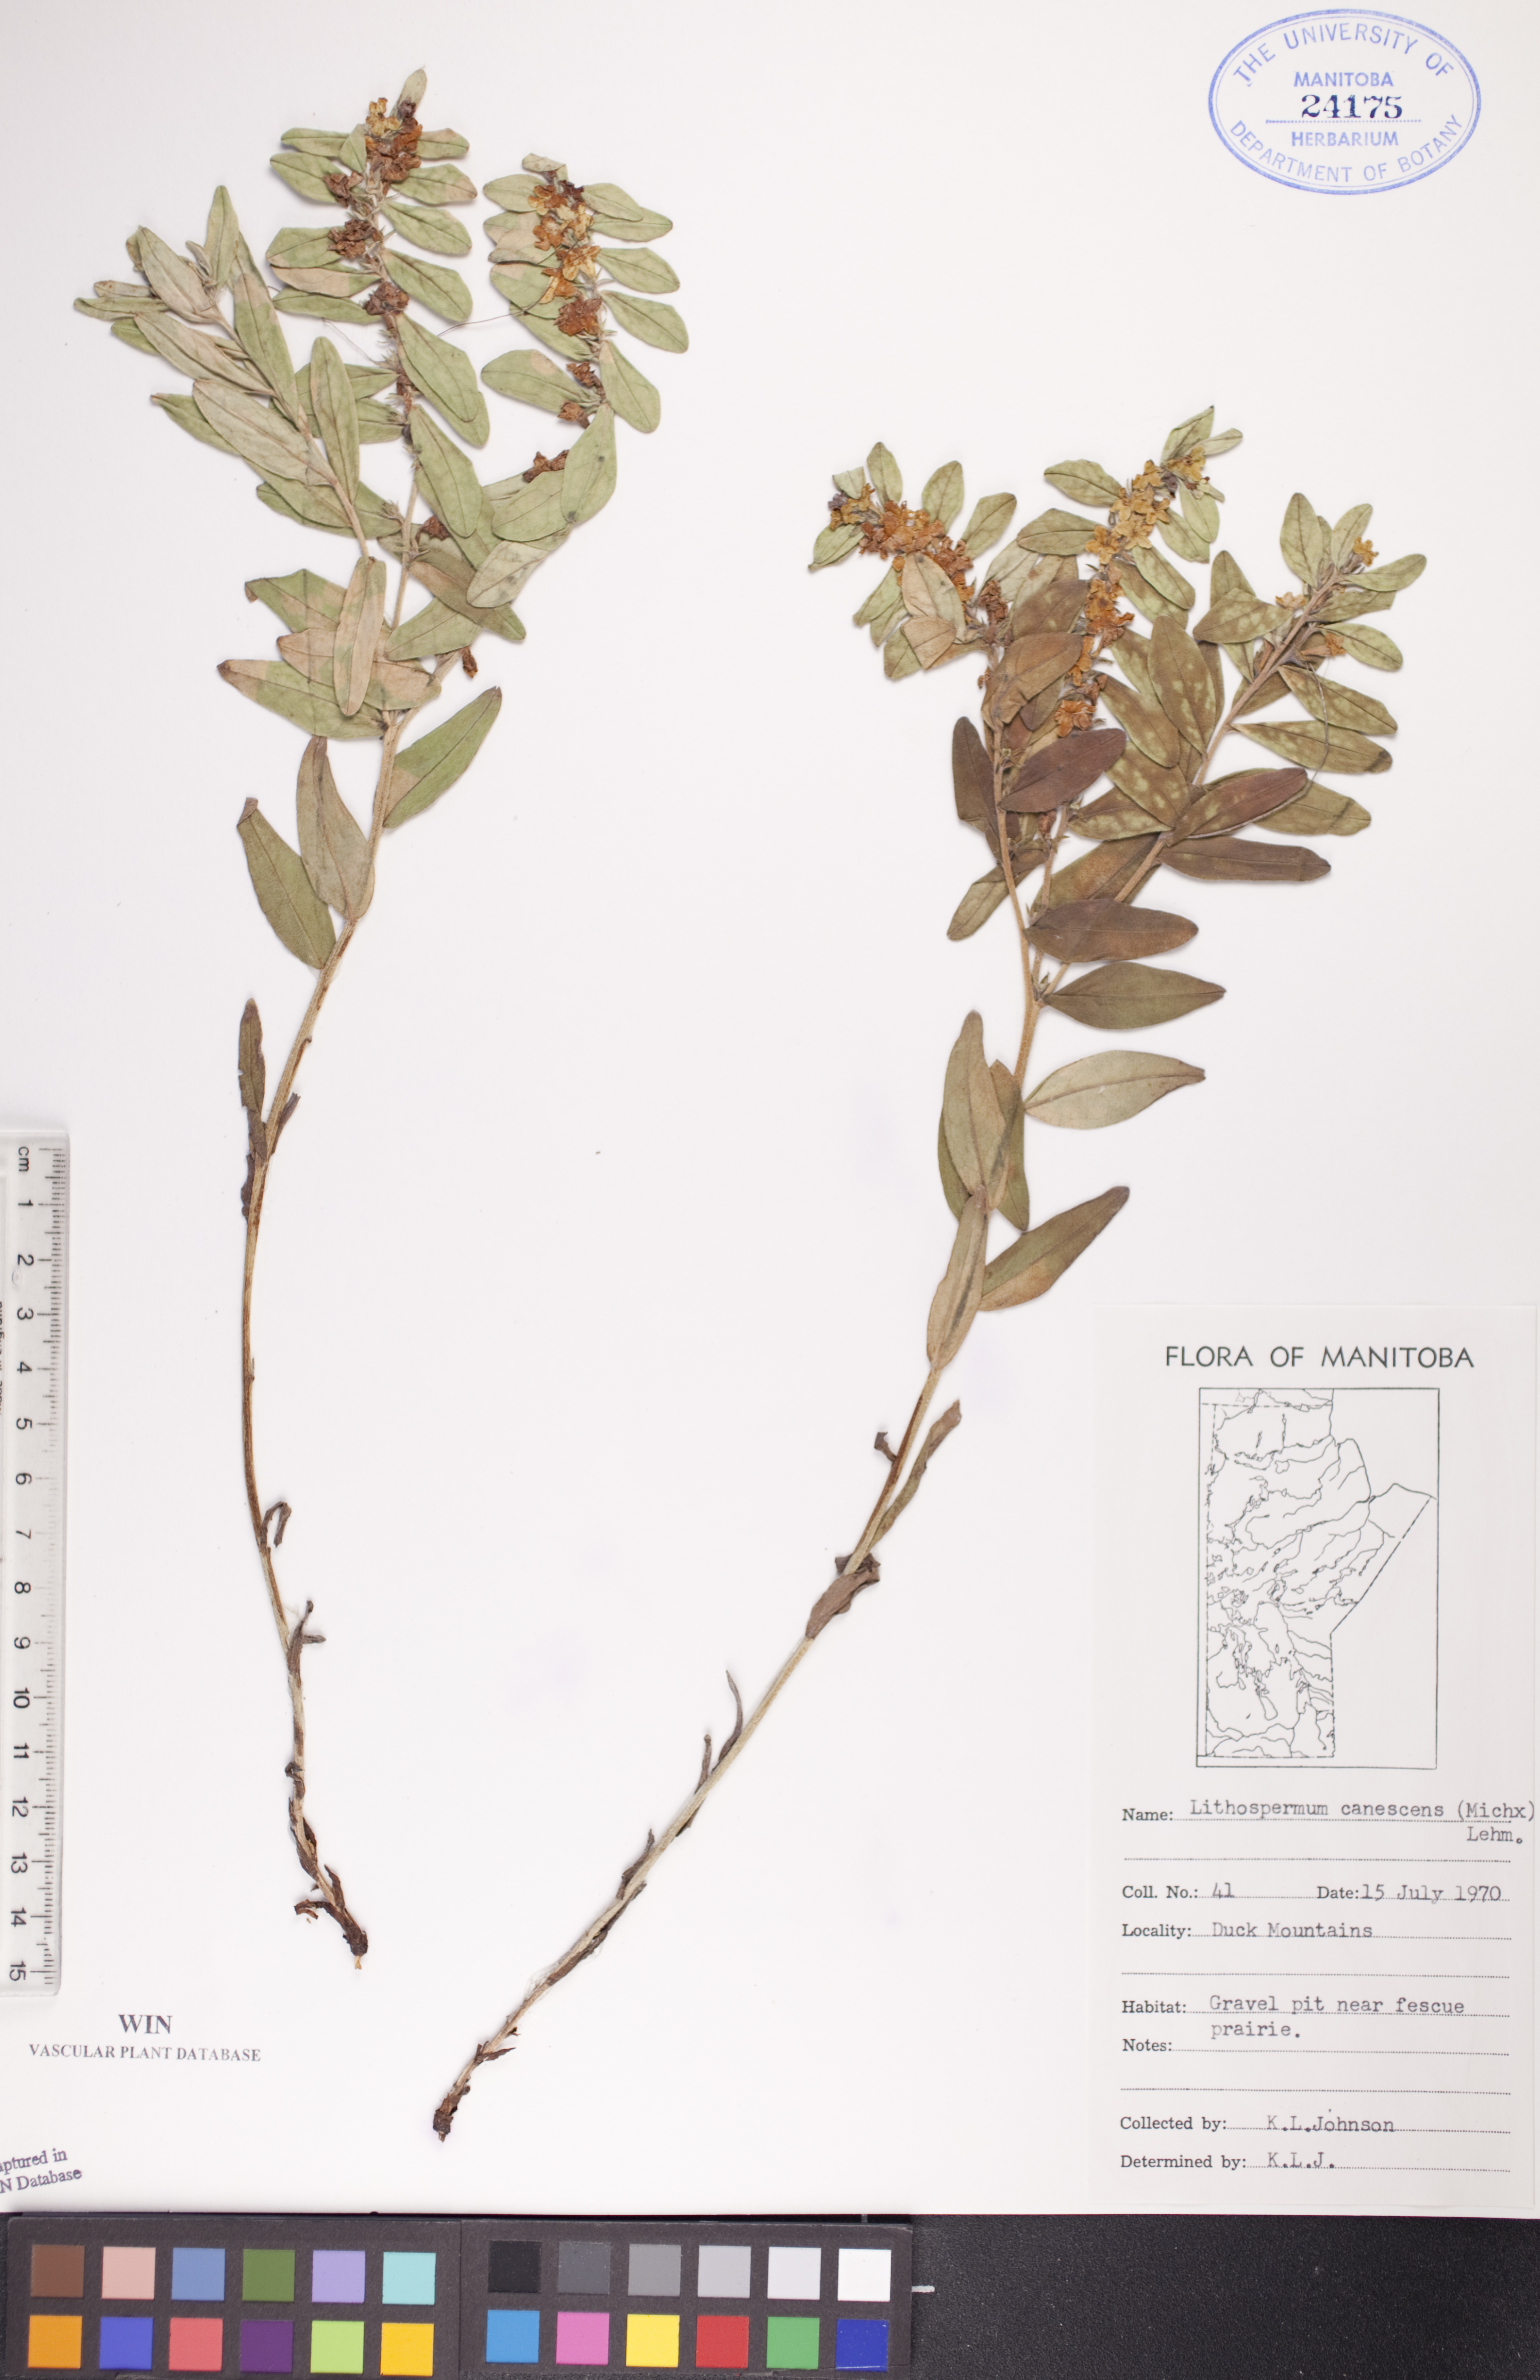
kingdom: Plantae
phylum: Tracheophyta
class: Magnoliopsida
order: Boraginales
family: Boraginaceae
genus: Lithospermum
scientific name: Lithospermum canescens
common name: Hoary puccoon
